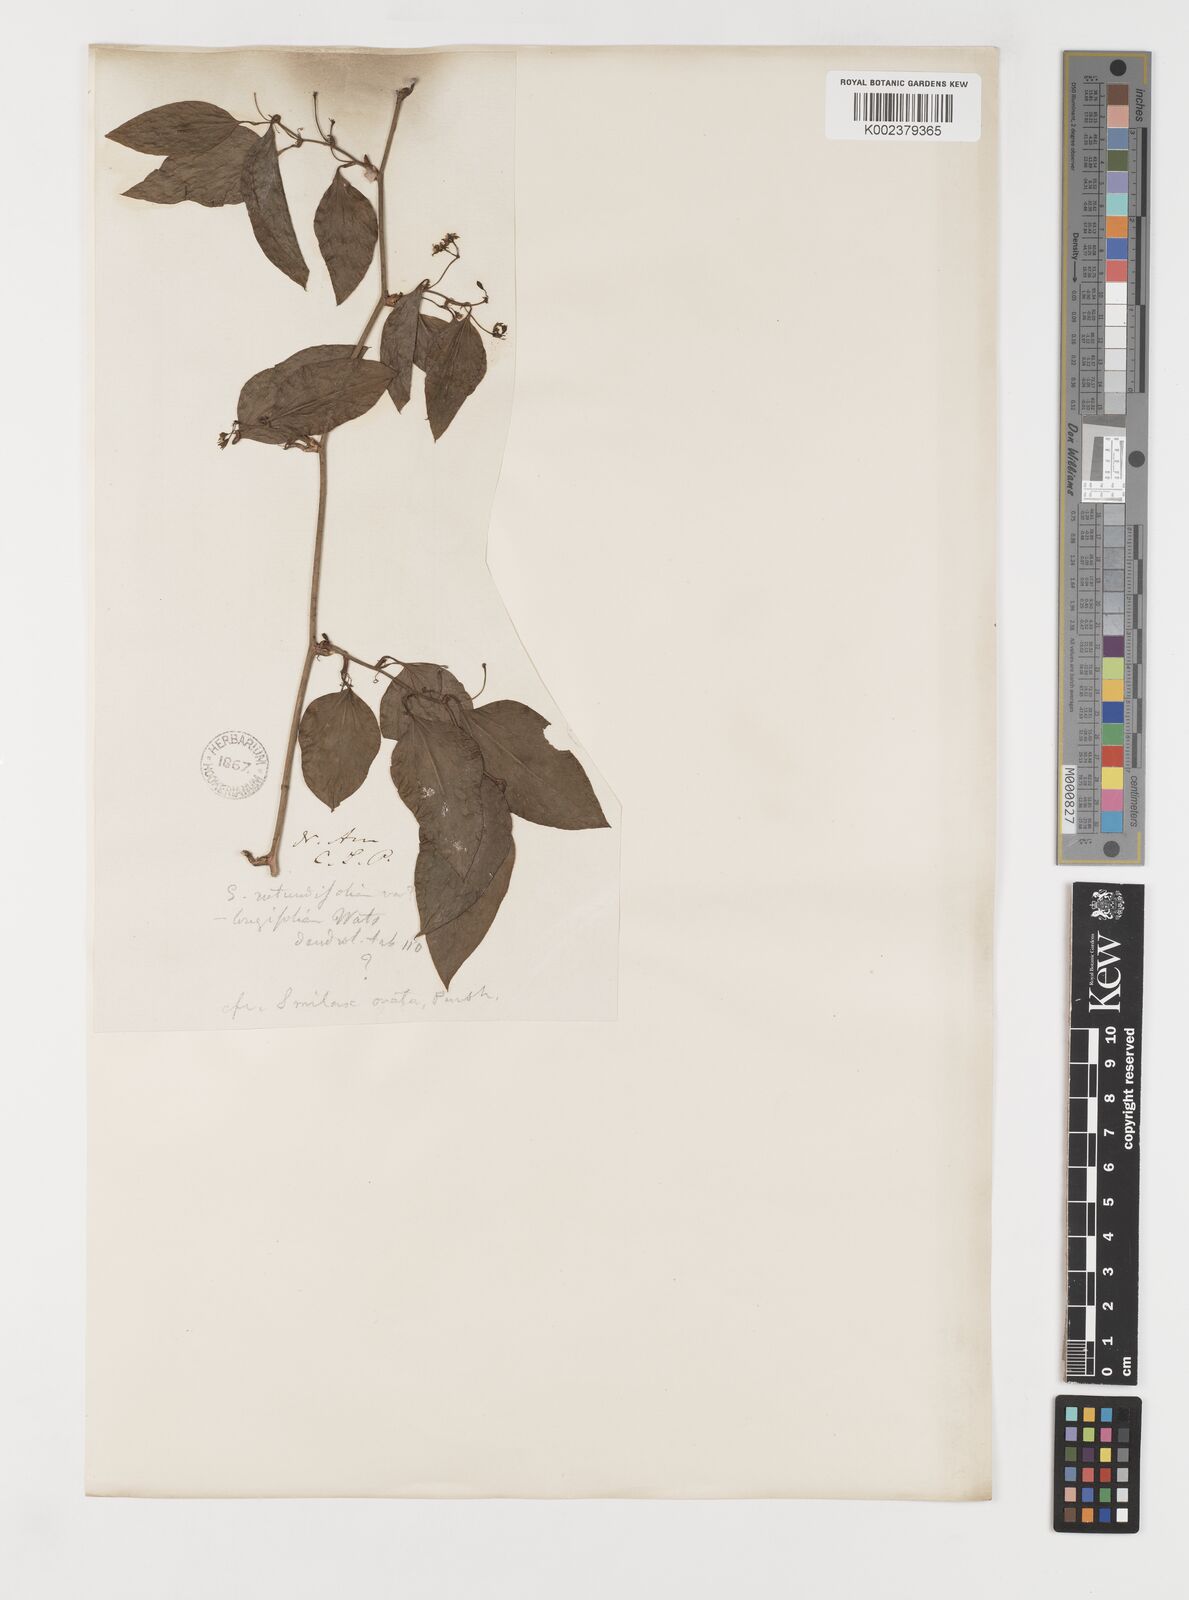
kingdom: Plantae
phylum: Tracheophyta
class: Liliopsida
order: Liliales
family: Smilacaceae
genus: Smilax
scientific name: Smilax maritima
